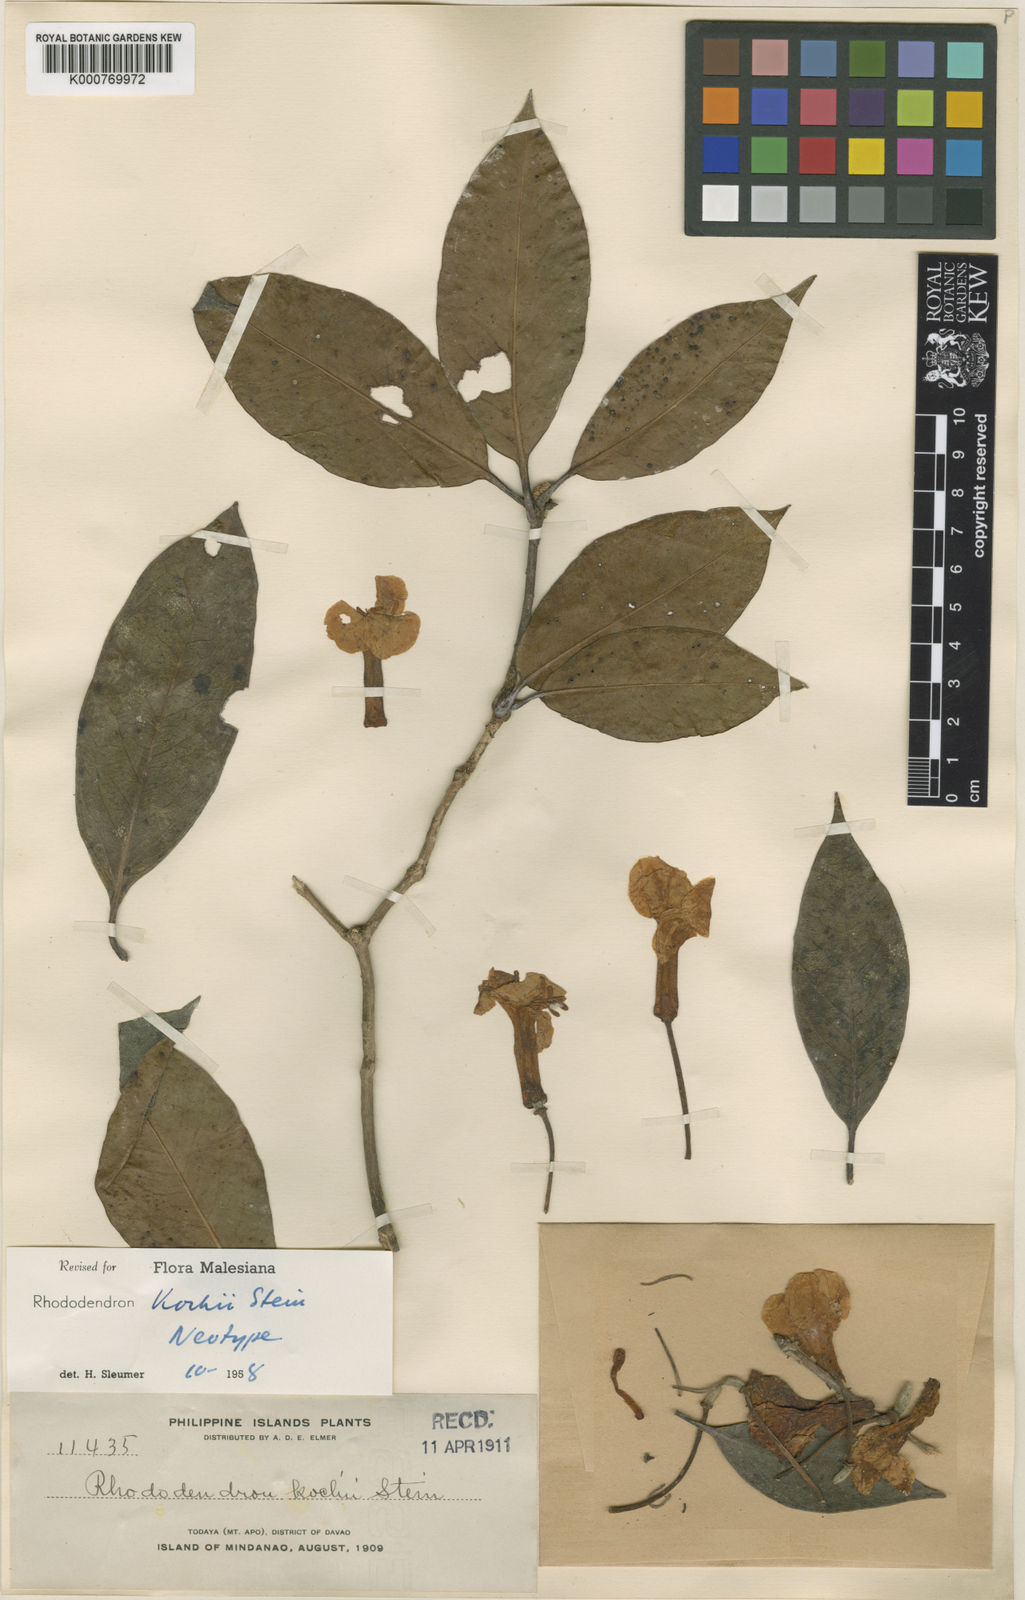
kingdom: Plantae
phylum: Tracheophyta
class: Magnoliopsida
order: Ericales
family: Ericaceae
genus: Rhododendron
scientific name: Rhododendron kochii
